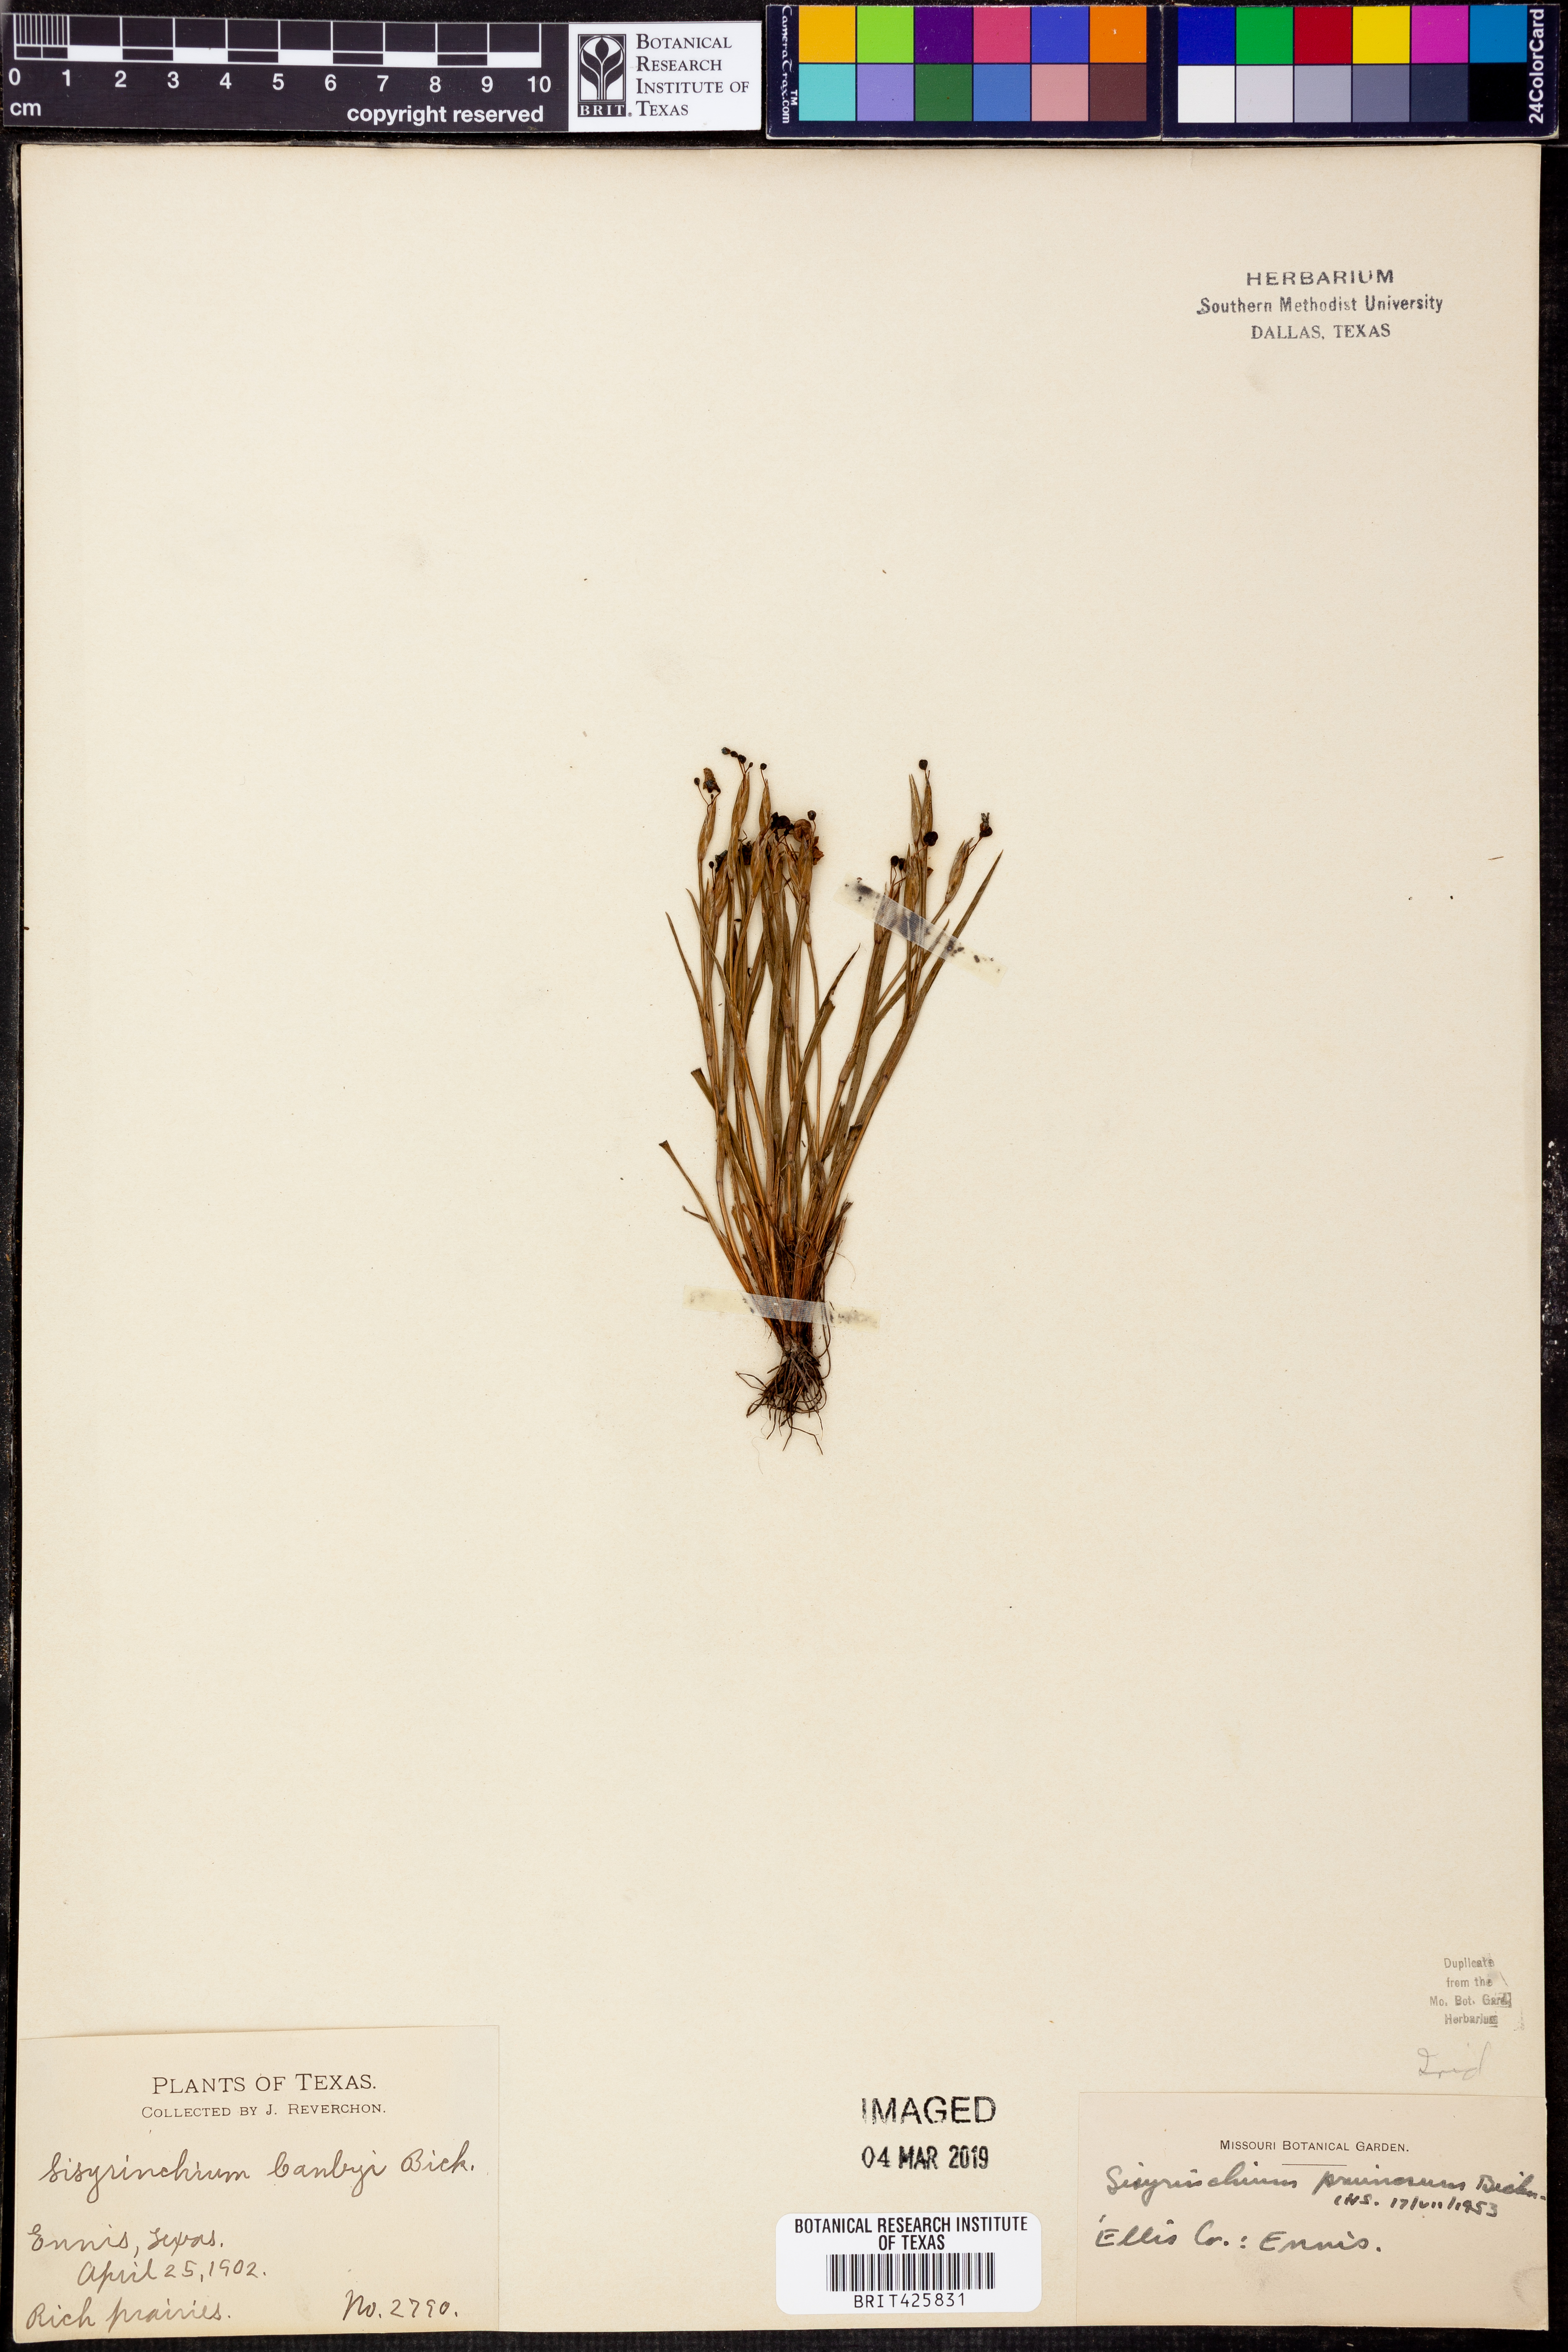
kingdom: Plantae
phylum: Tracheophyta
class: Liliopsida
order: Asparagales
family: Iridaceae
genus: Sisyrinchium
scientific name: Sisyrinchium pruinosum
